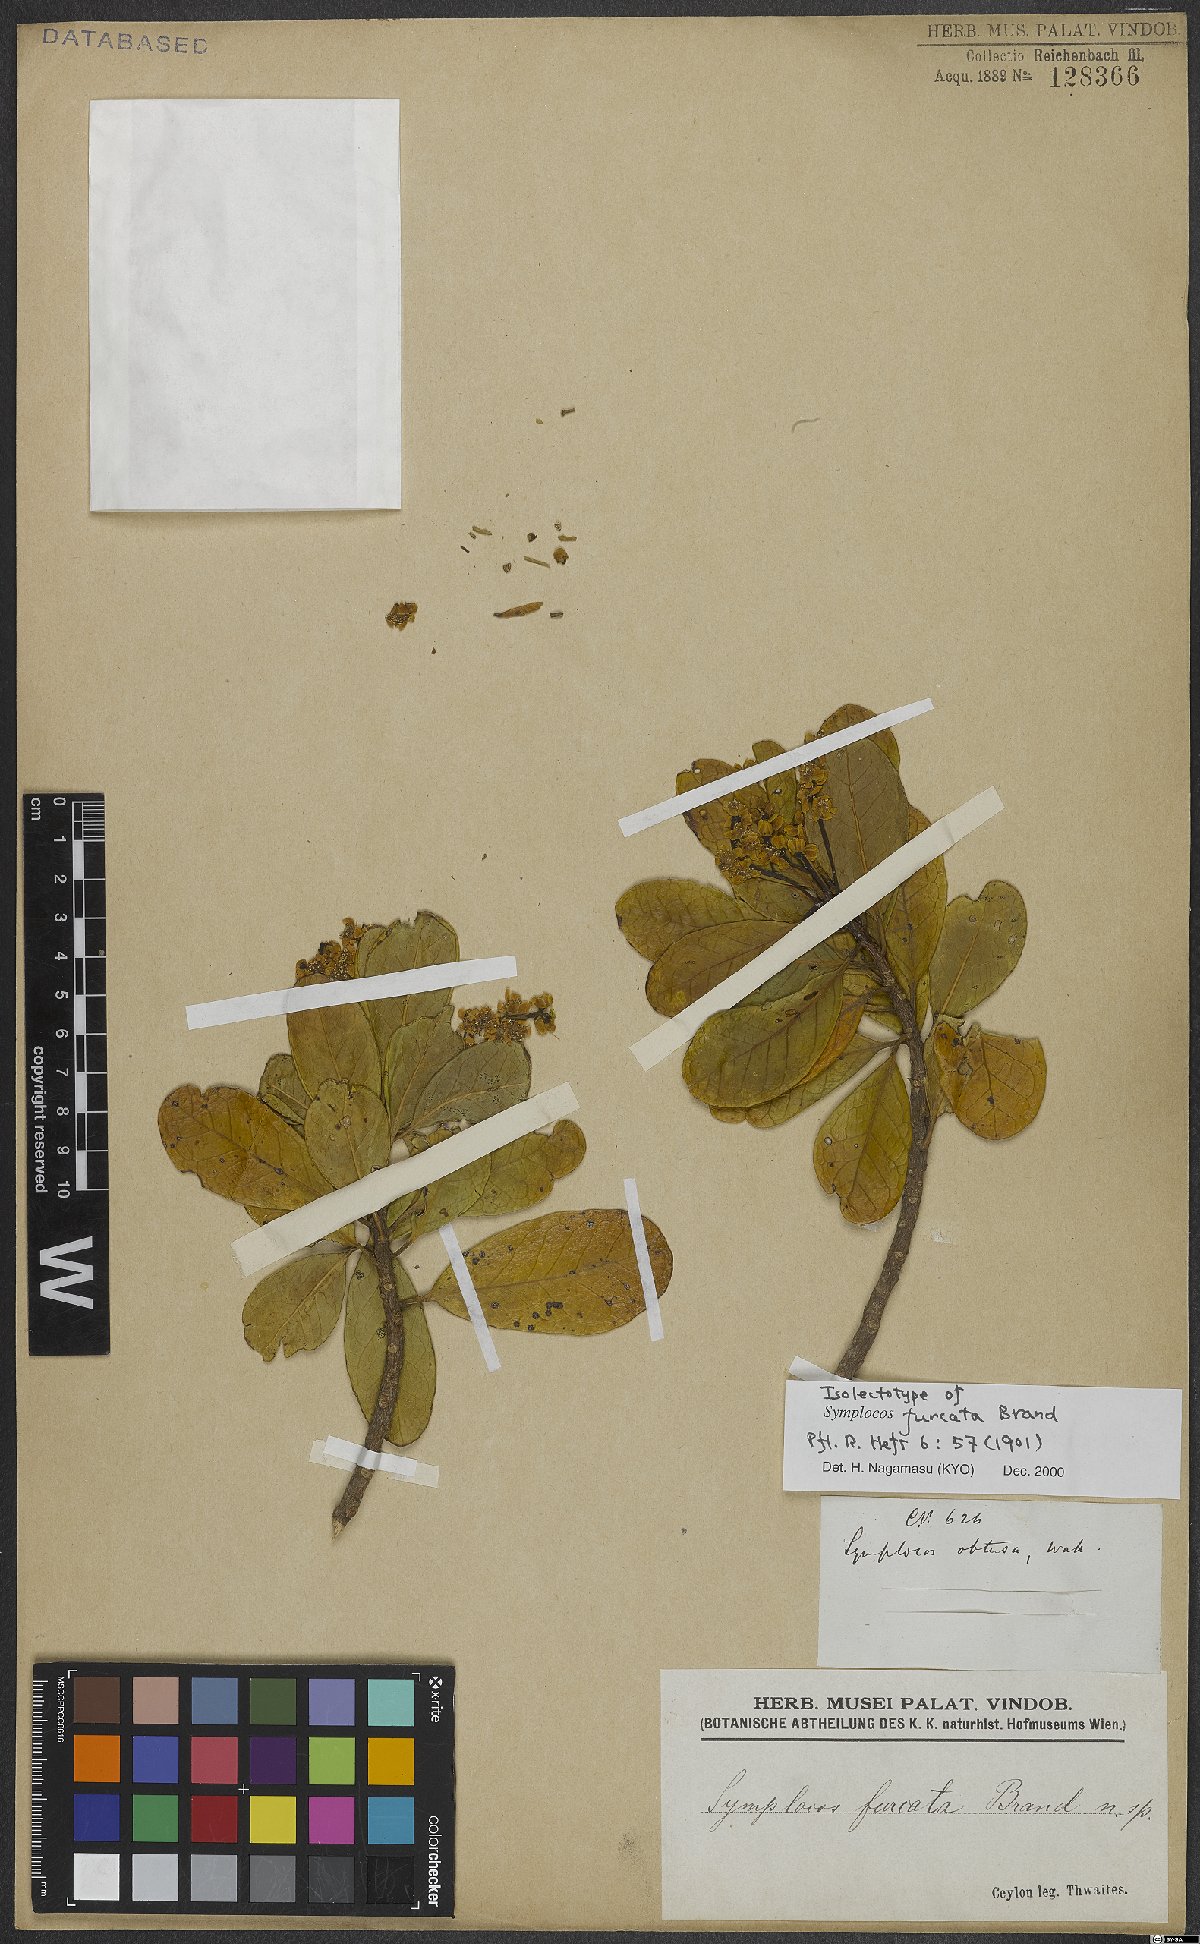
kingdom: Plantae
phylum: Tracheophyta
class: Magnoliopsida
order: Ericales
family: Symplocaceae
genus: Symplocos
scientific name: Symplocos obtusa
